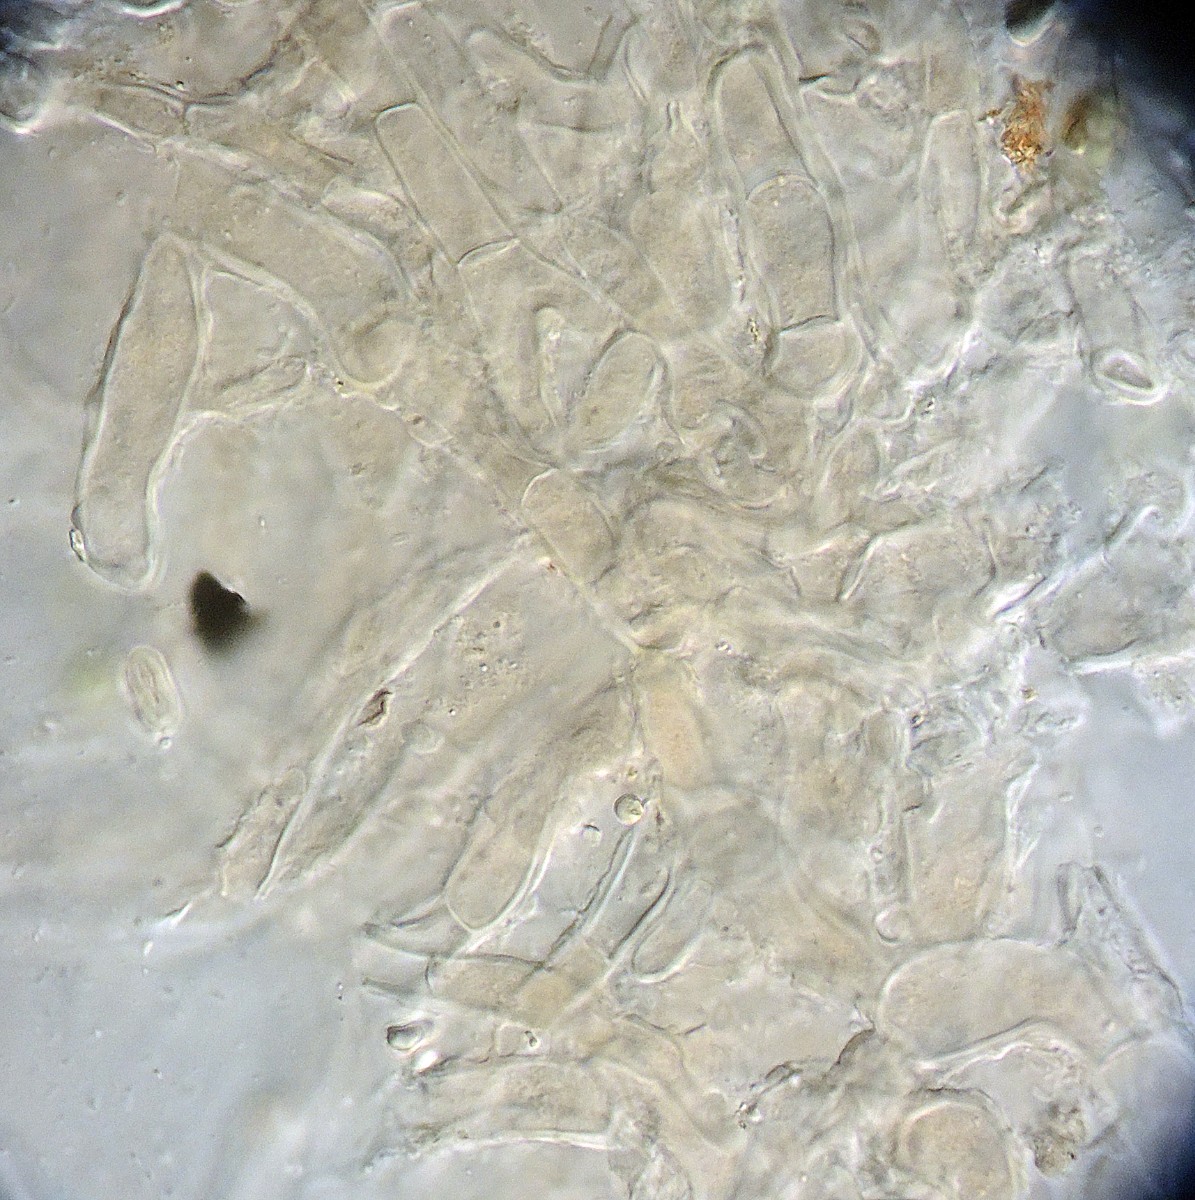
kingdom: Fungi
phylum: Ascomycota
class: Pezizomycetes
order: Pezizales
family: Pyronemataceae
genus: Octospora
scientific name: Octospora affinis
